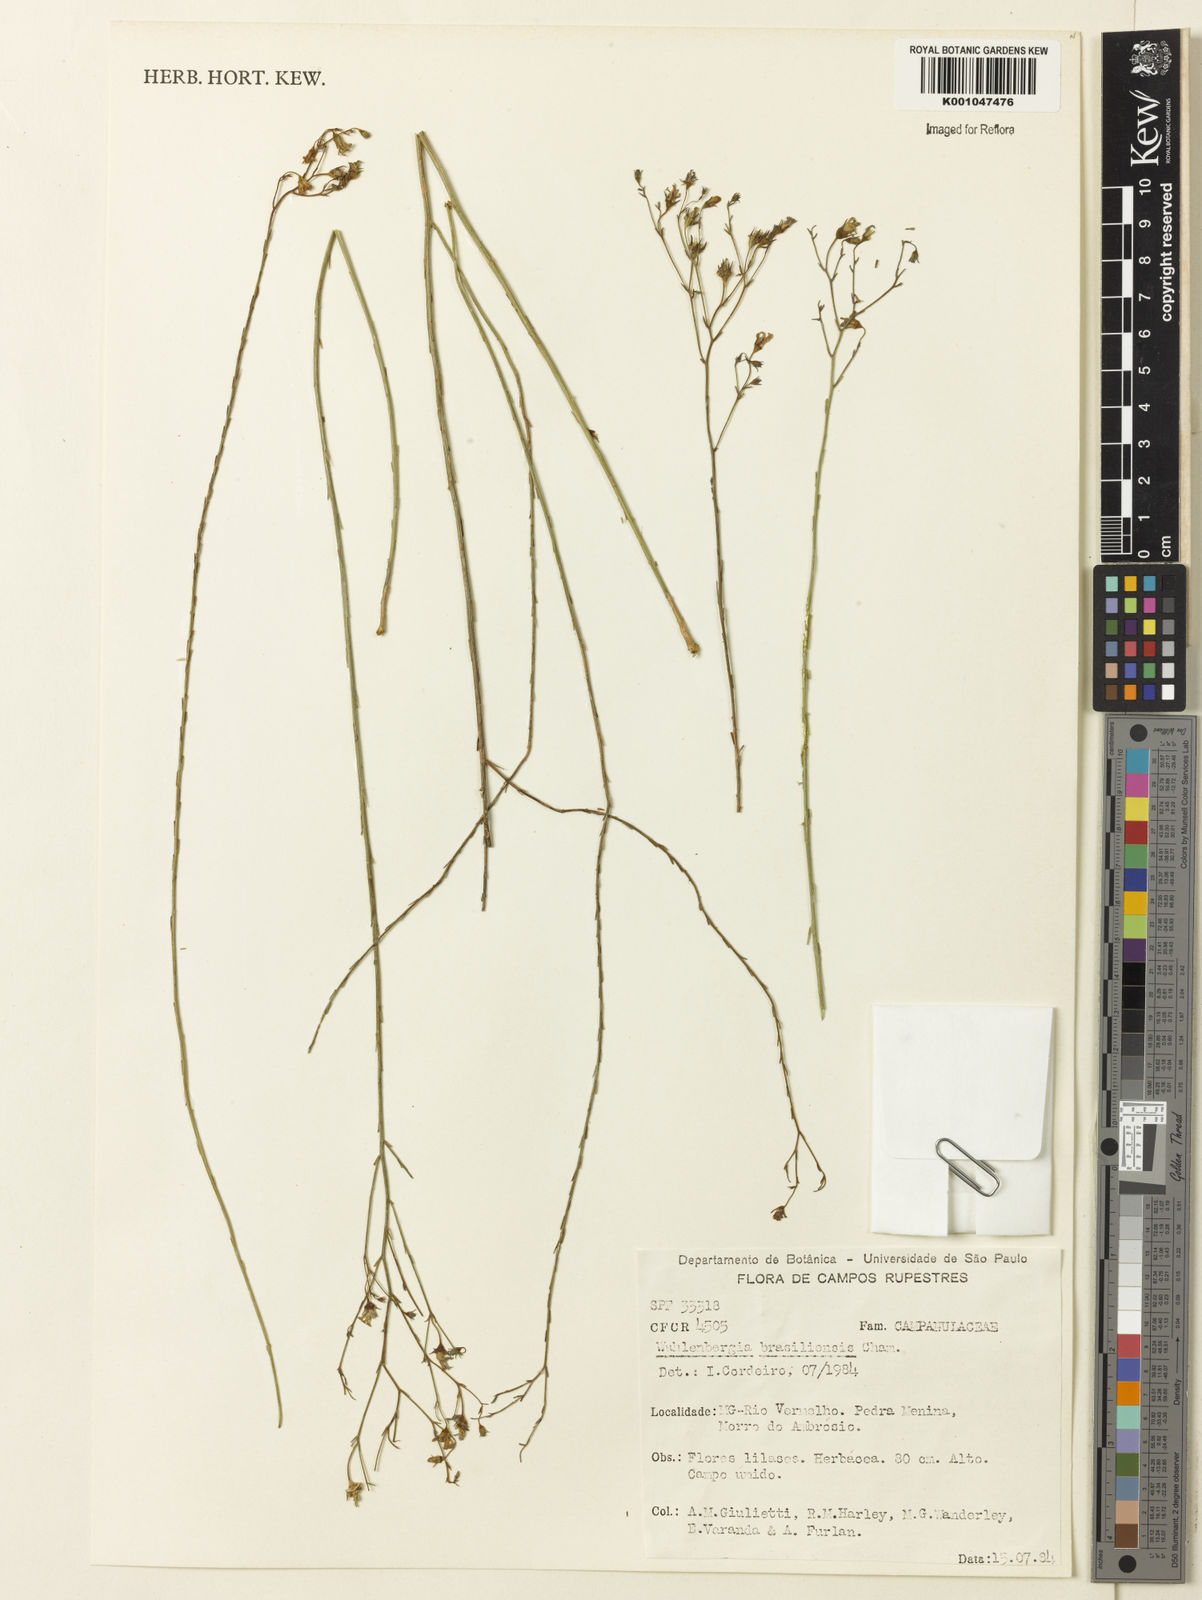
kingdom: Plantae
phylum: Tracheophyta
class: Magnoliopsida
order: Asterales
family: Campanulaceae
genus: Wahlenbergia
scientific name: Wahlenbergia brasiliensis
